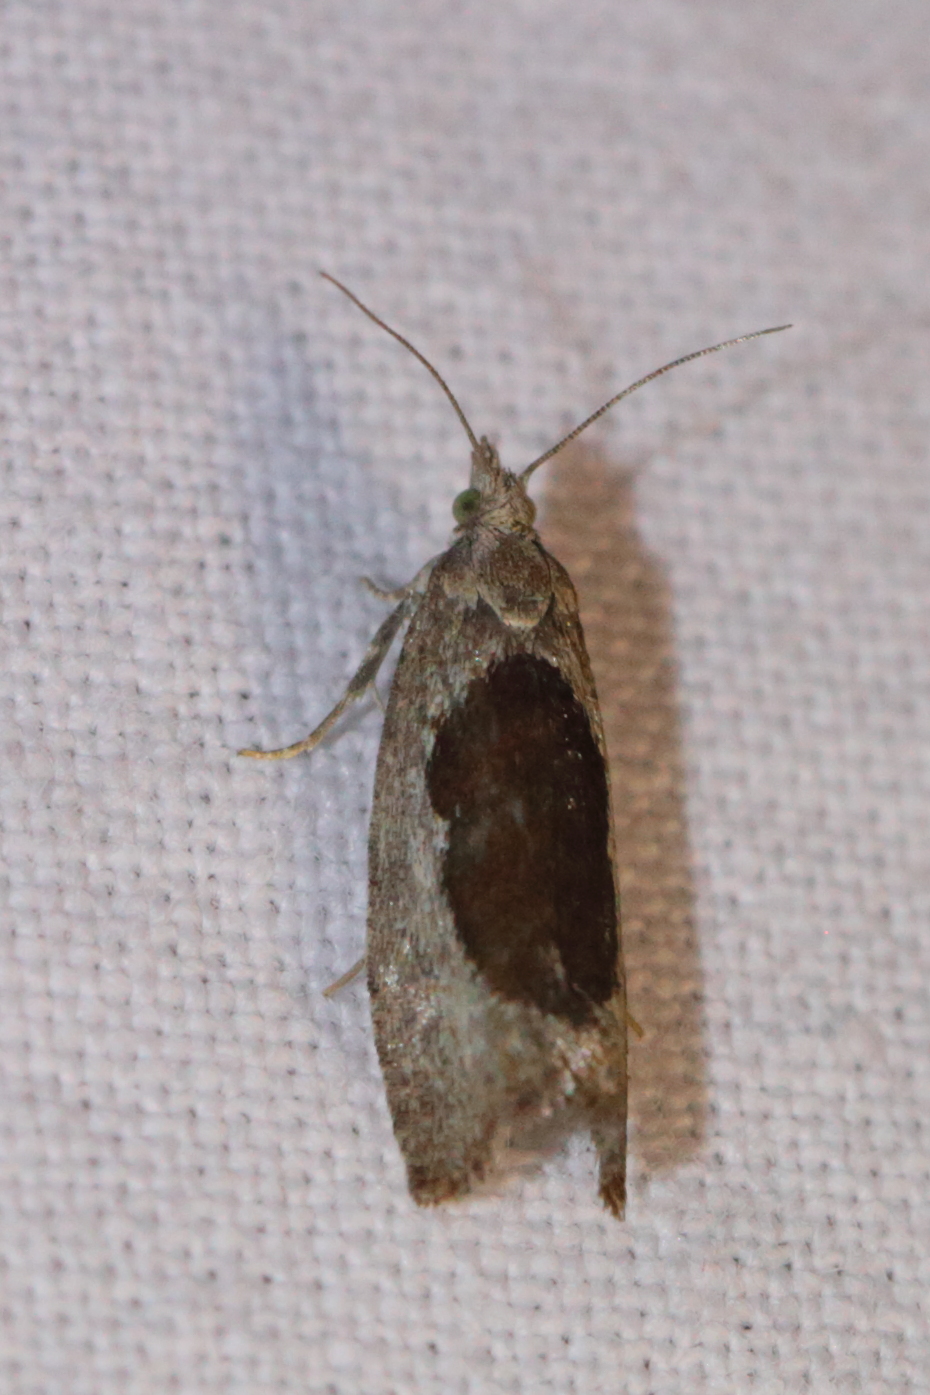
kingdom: Animalia
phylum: Arthropoda
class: Insecta
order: Lepidoptera
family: Tortricidae
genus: Epinotia
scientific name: Epinotia solandriana
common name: Variable bell
